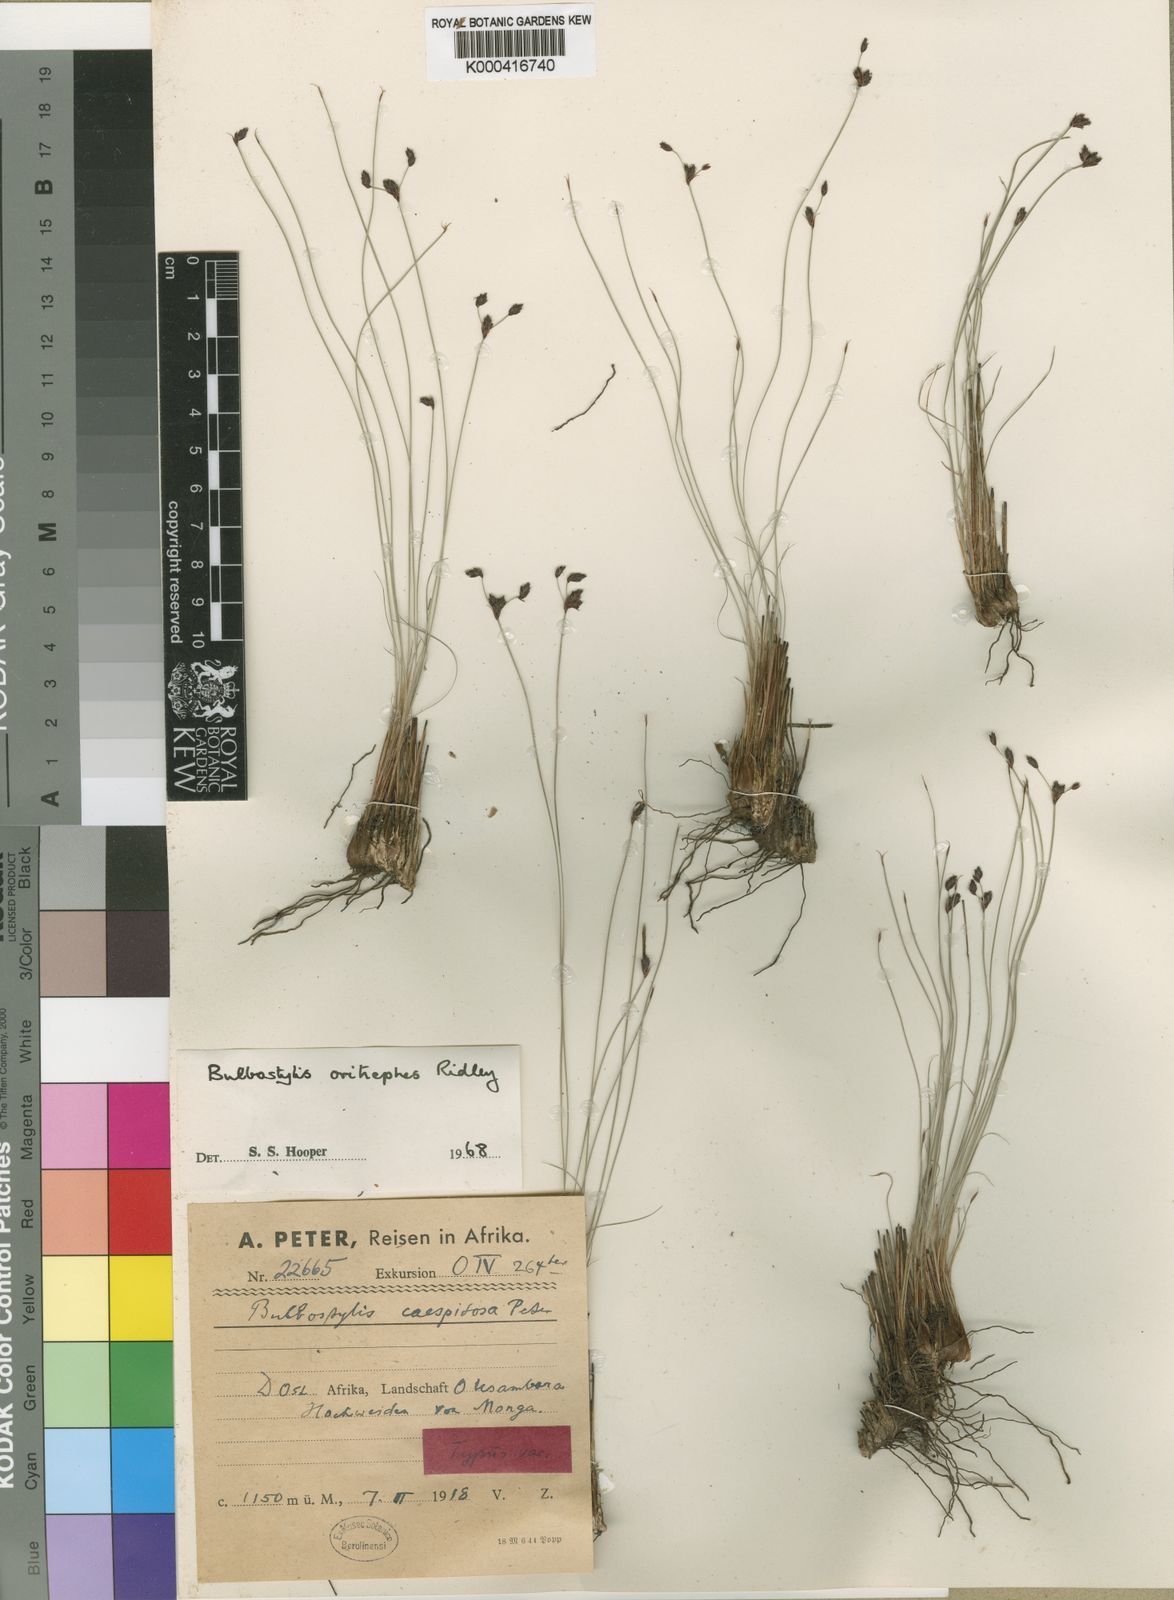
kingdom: Plantae
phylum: Tracheophyta
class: Liliopsida
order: Poales
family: Cyperaceae
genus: Bulbostylis
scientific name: Bulbostylis oritrephes
